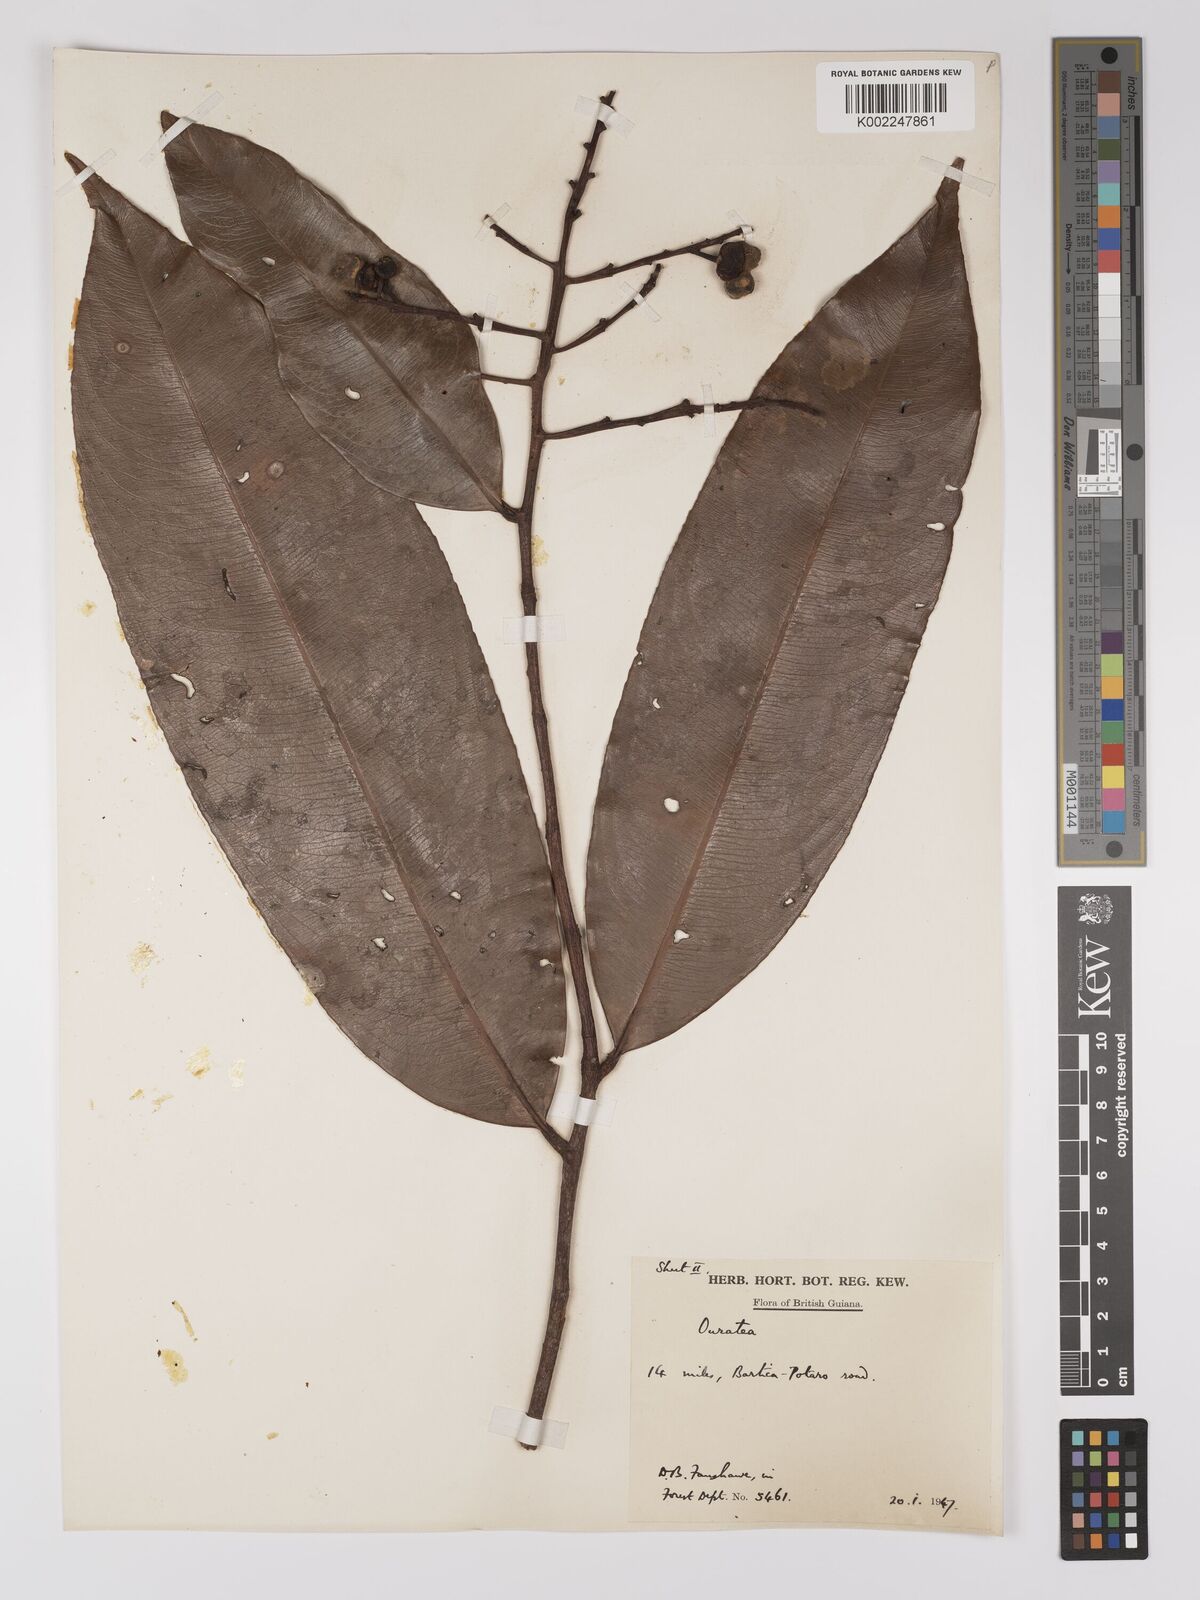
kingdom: Plantae
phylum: Tracheophyta
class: Magnoliopsida
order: Malpighiales
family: Ochnaceae
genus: Ouratea
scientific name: Ouratea
